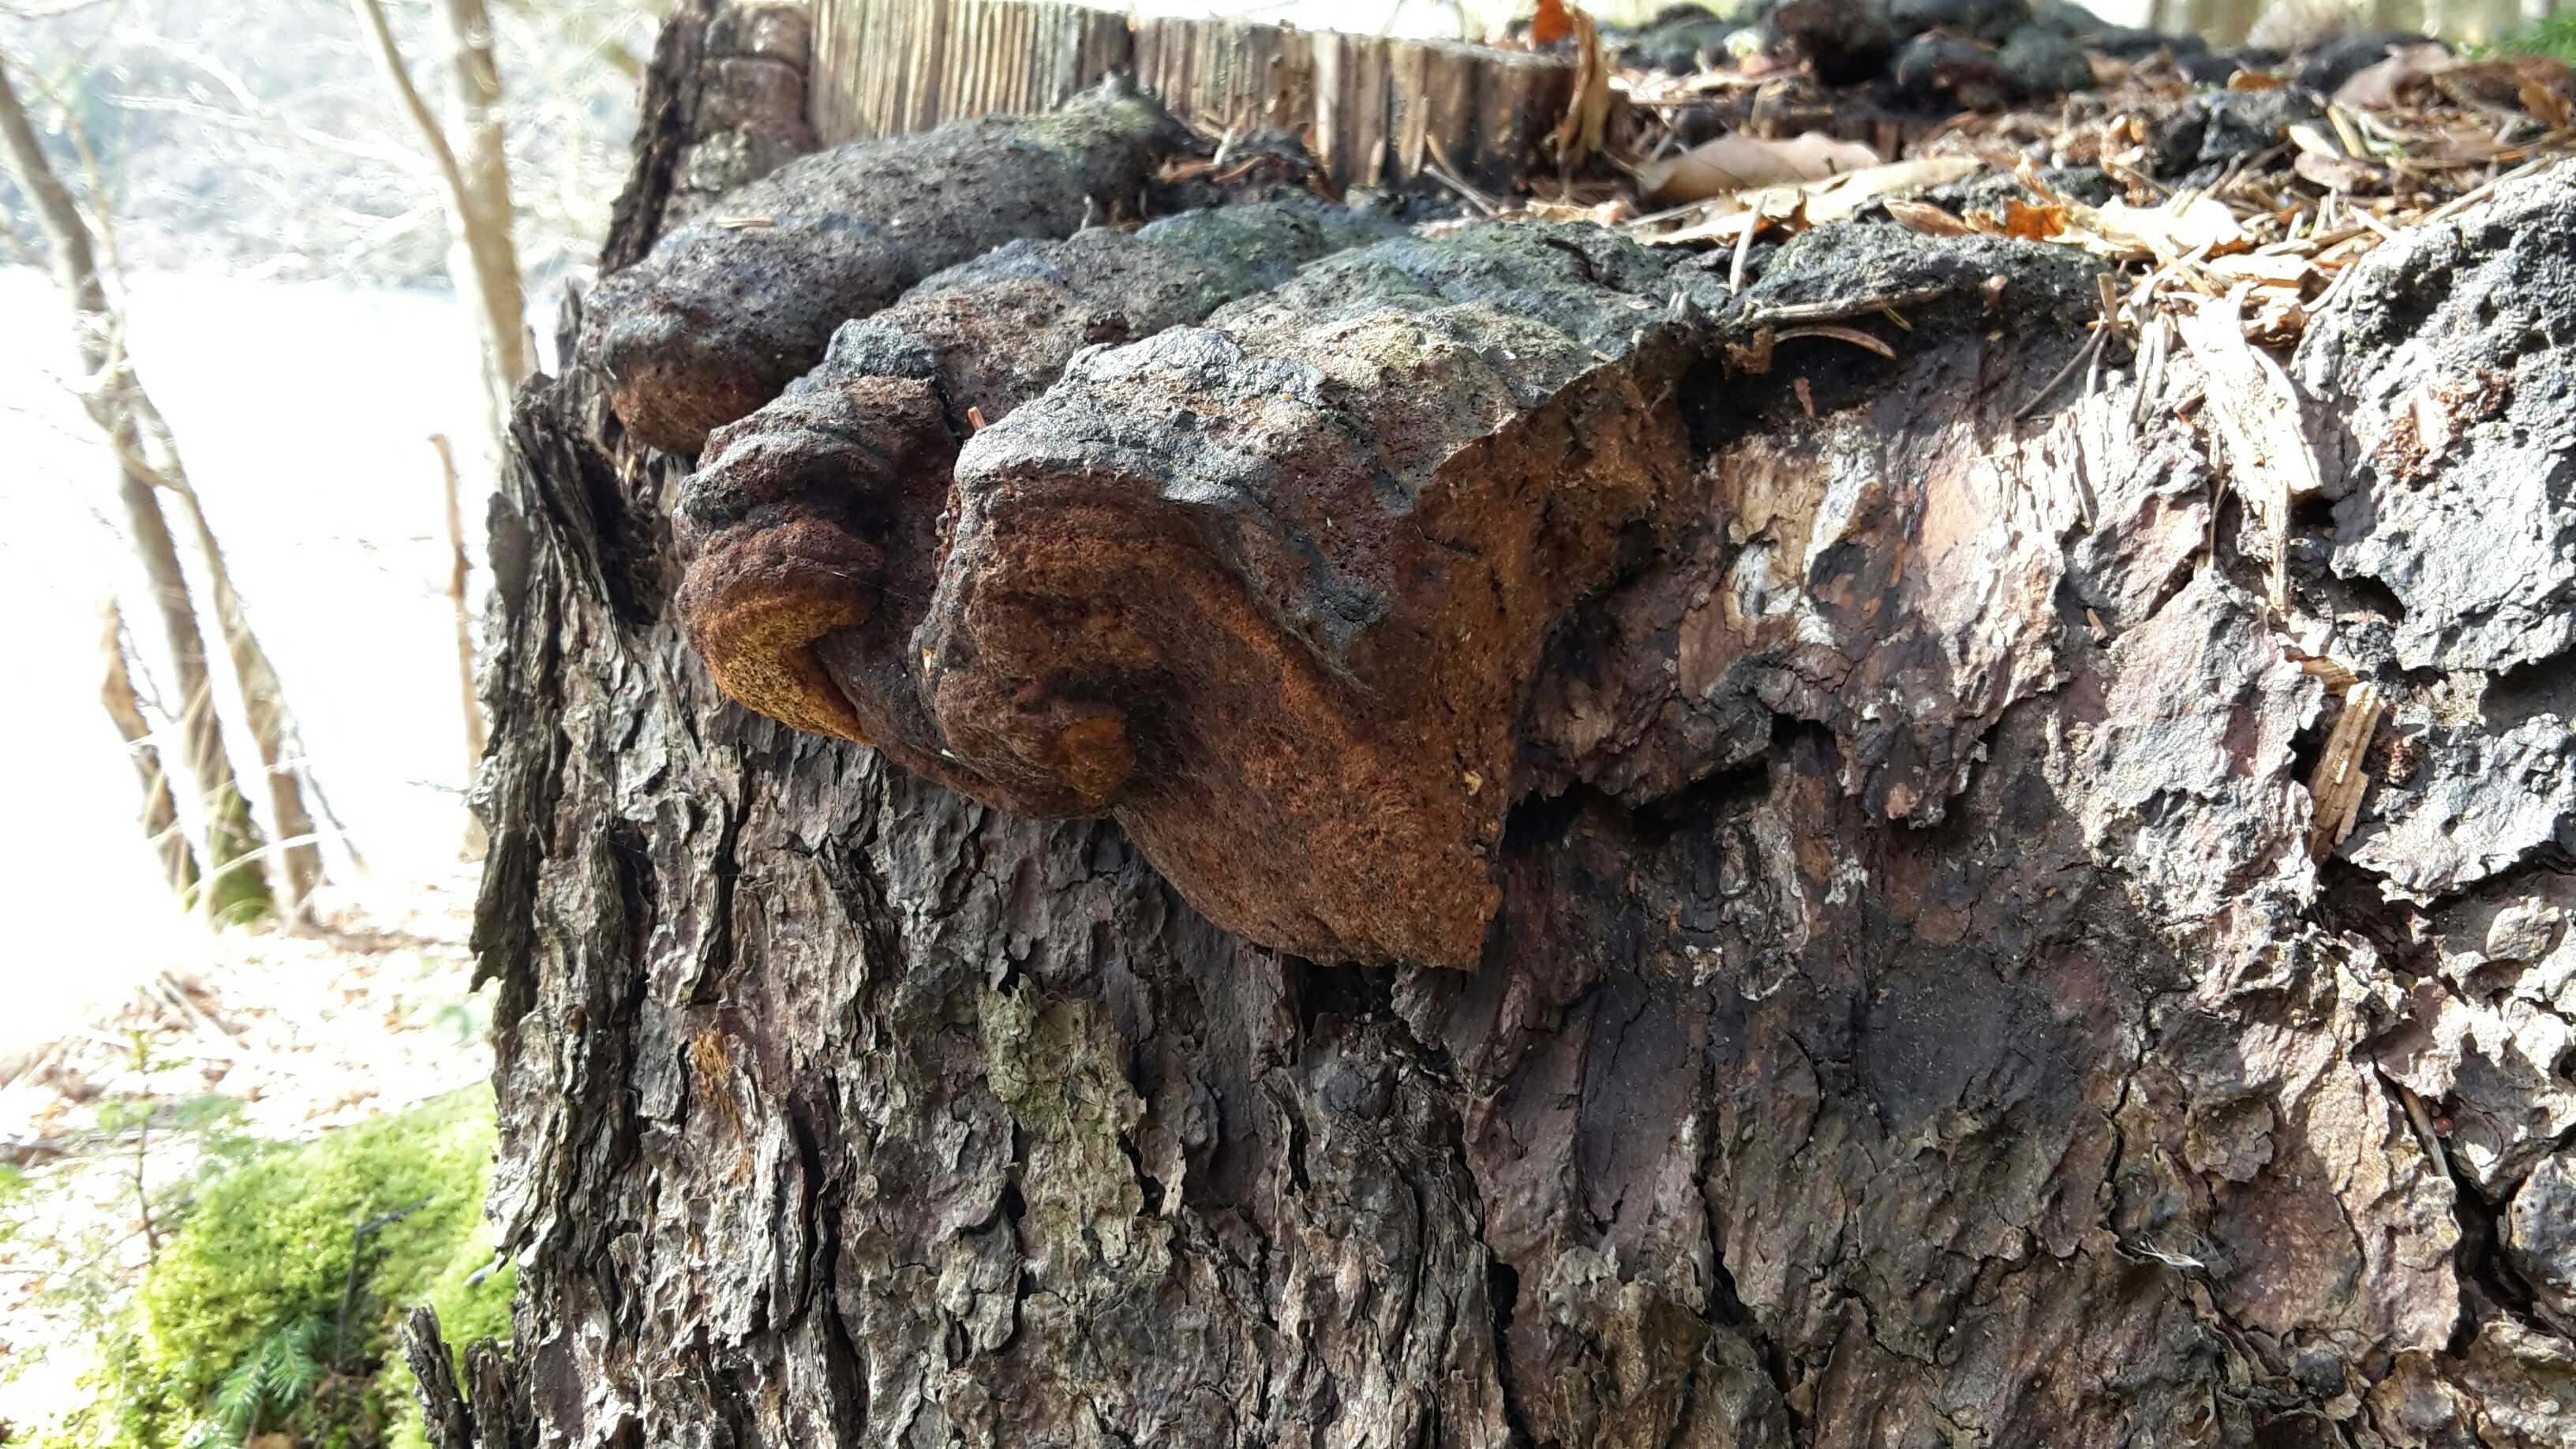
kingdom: Fungi
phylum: Basidiomycota
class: Agaricomycetes
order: Gloeophyllales
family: Gloeophyllaceae
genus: Gloeophyllum
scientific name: Gloeophyllum odoratum
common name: duftende korkhat
